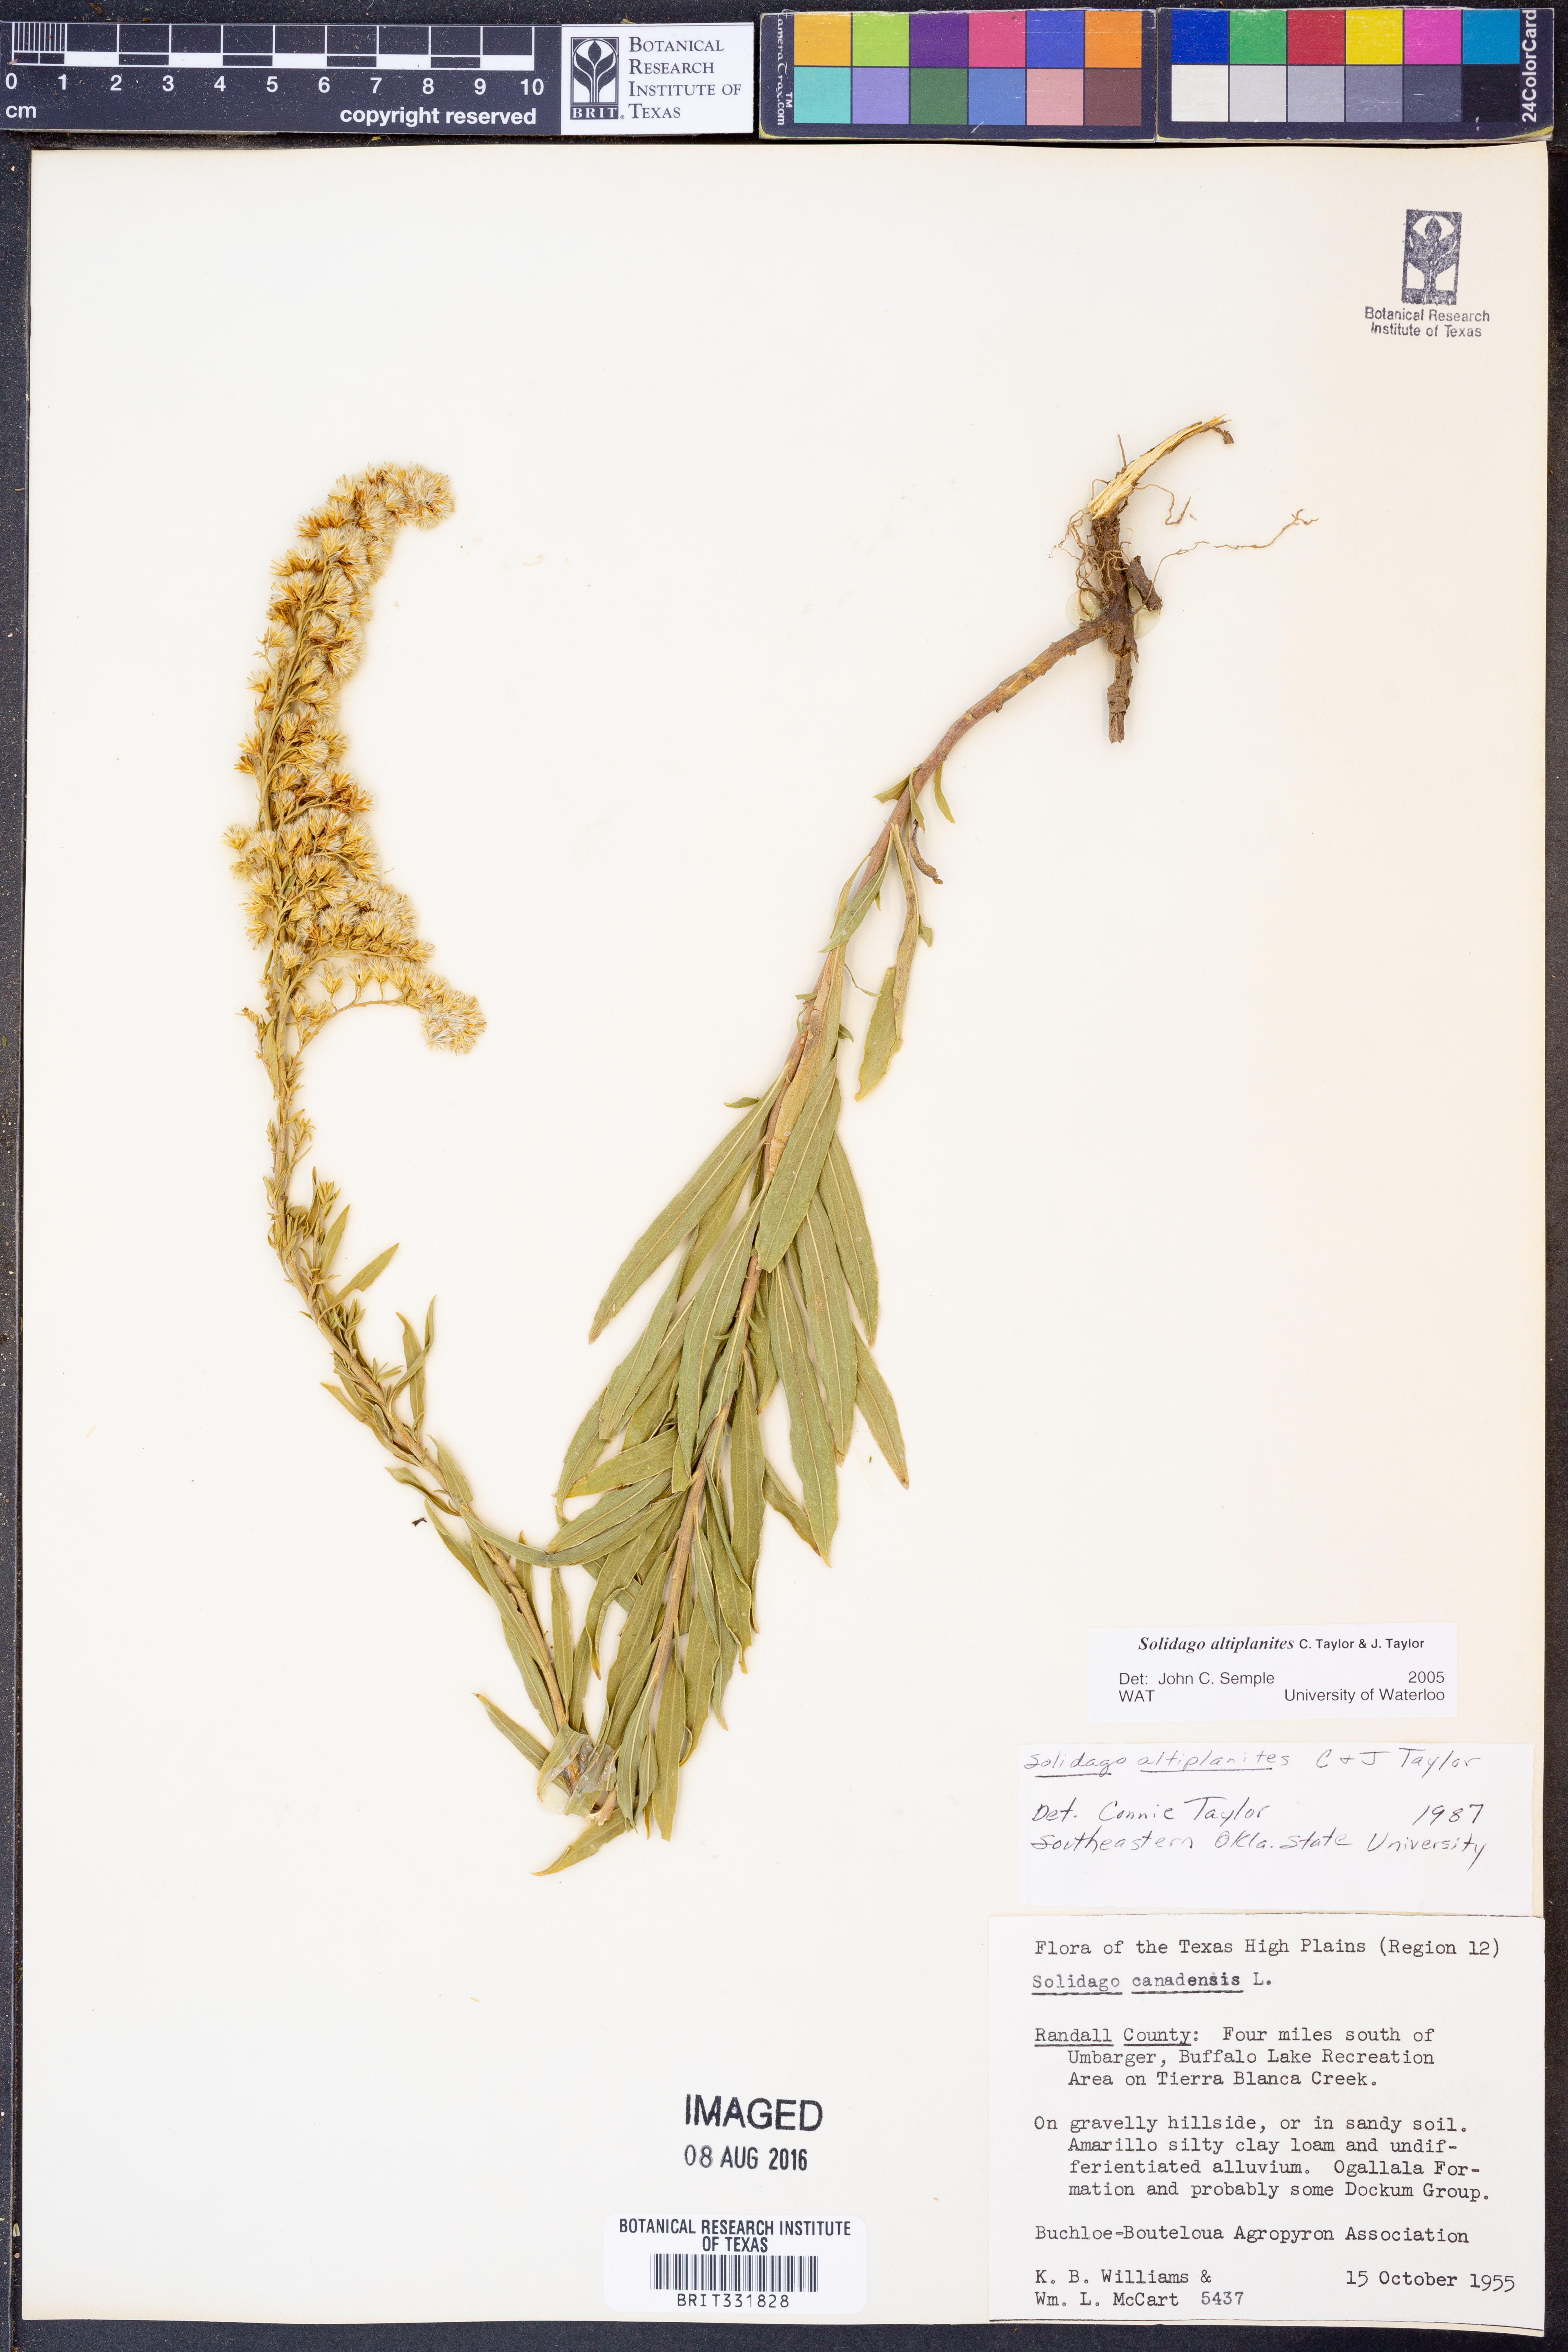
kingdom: Plantae
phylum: Tracheophyta
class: Magnoliopsida
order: Asterales
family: Asteraceae
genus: Solidago
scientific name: Solidago altiplanities
